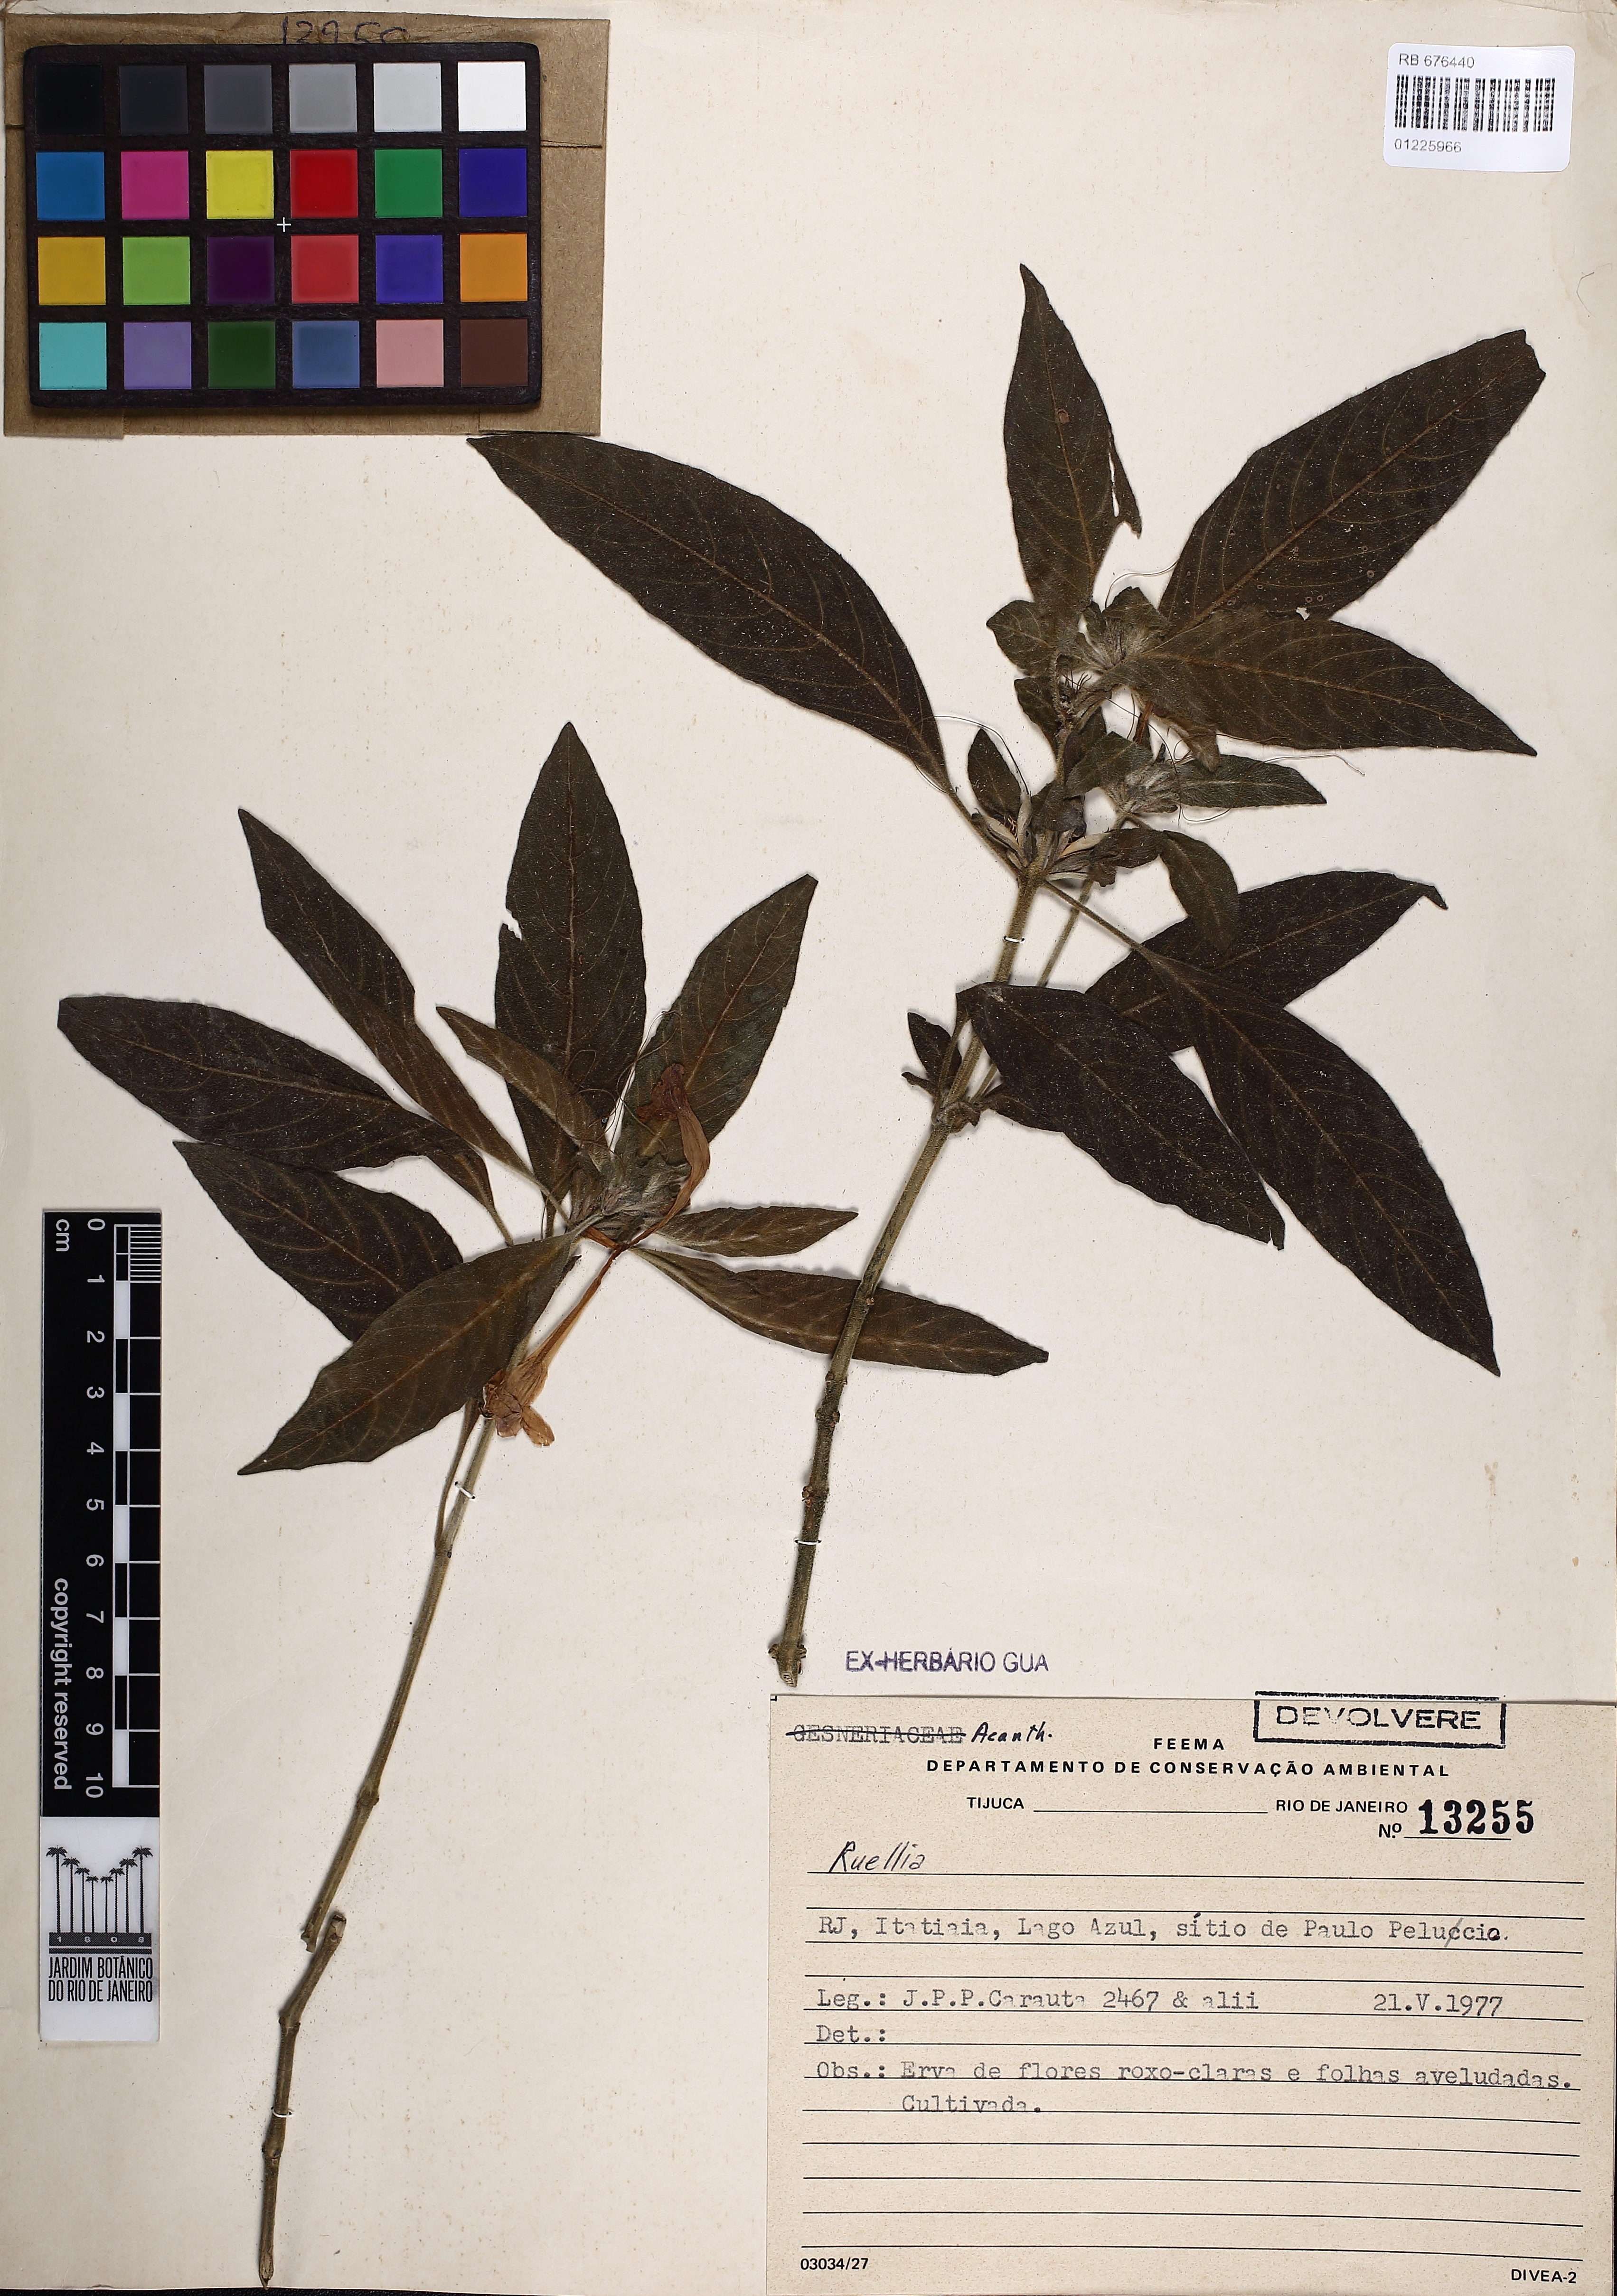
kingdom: Plantae
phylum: Tracheophyta
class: Magnoliopsida
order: Lamiales
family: Acanthaceae
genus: Ruellia
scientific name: Ruellia
